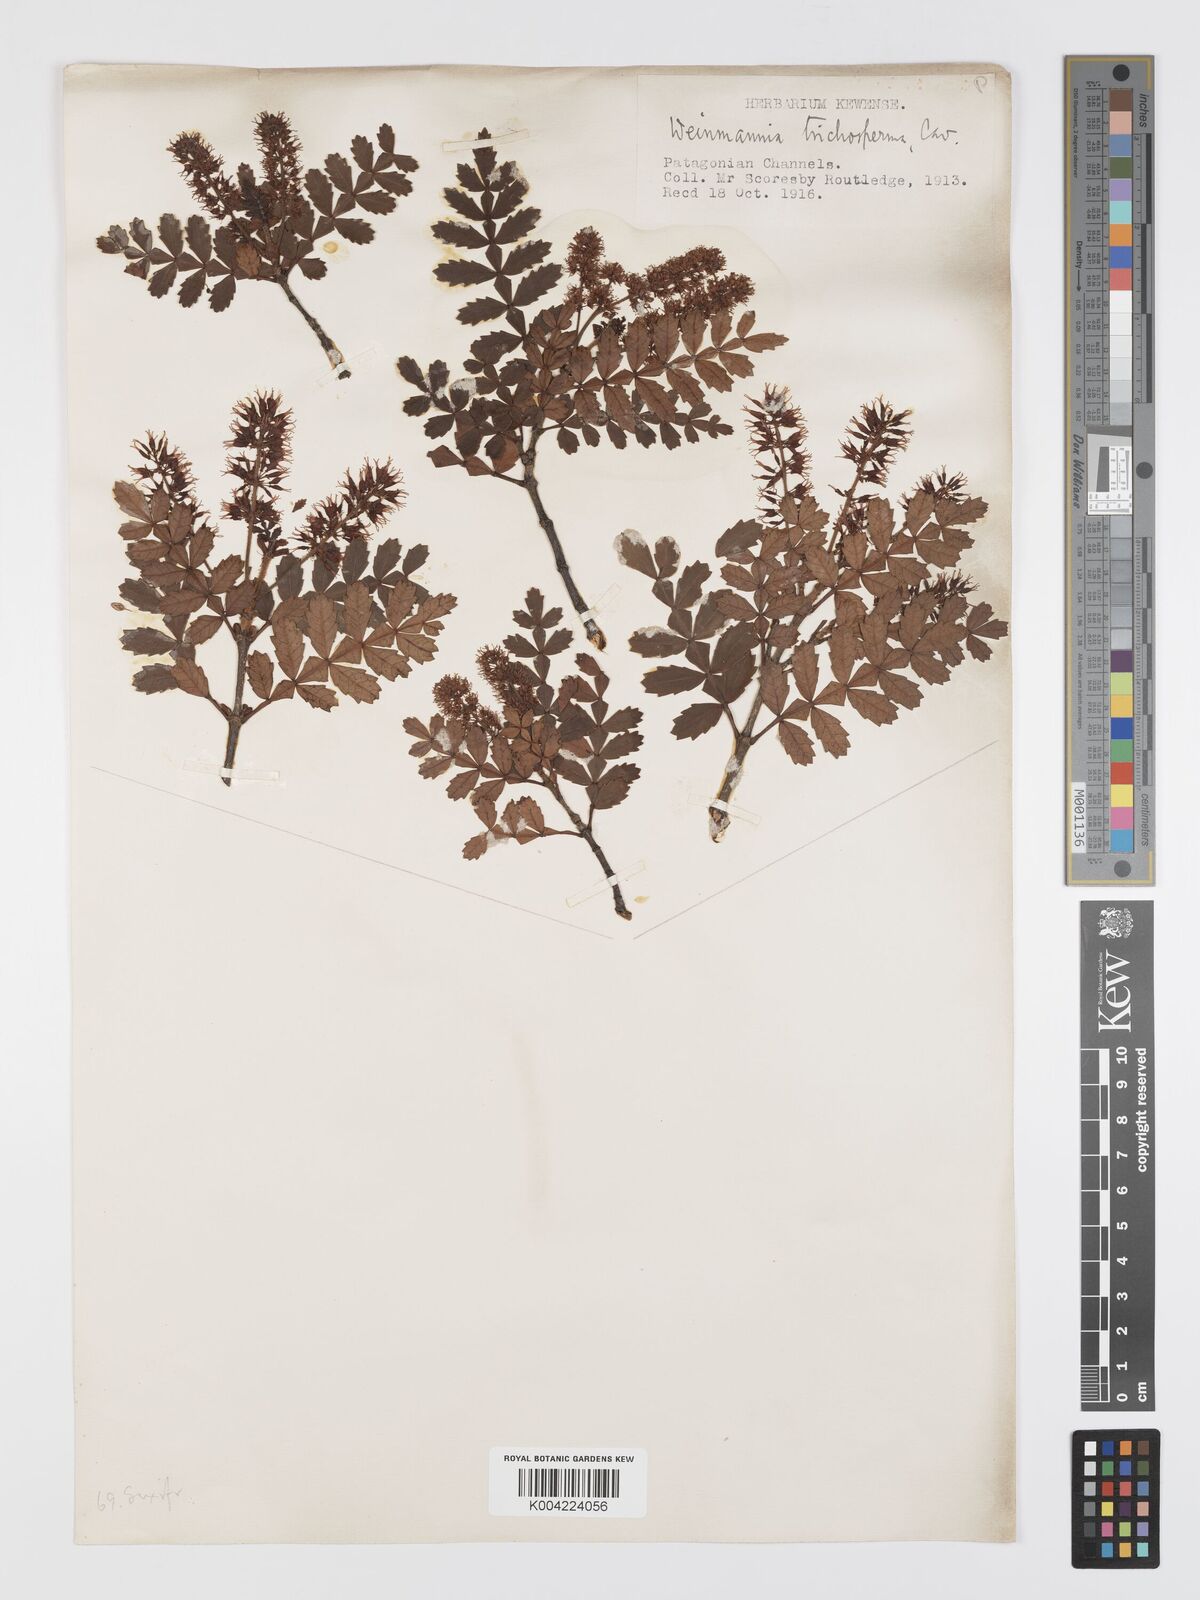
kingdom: Plantae
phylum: Tracheophyta
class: Magnoliopsida
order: Oxalidales
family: Cunoniaceae
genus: Weinmannia
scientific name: Weinmannia trichosperma
